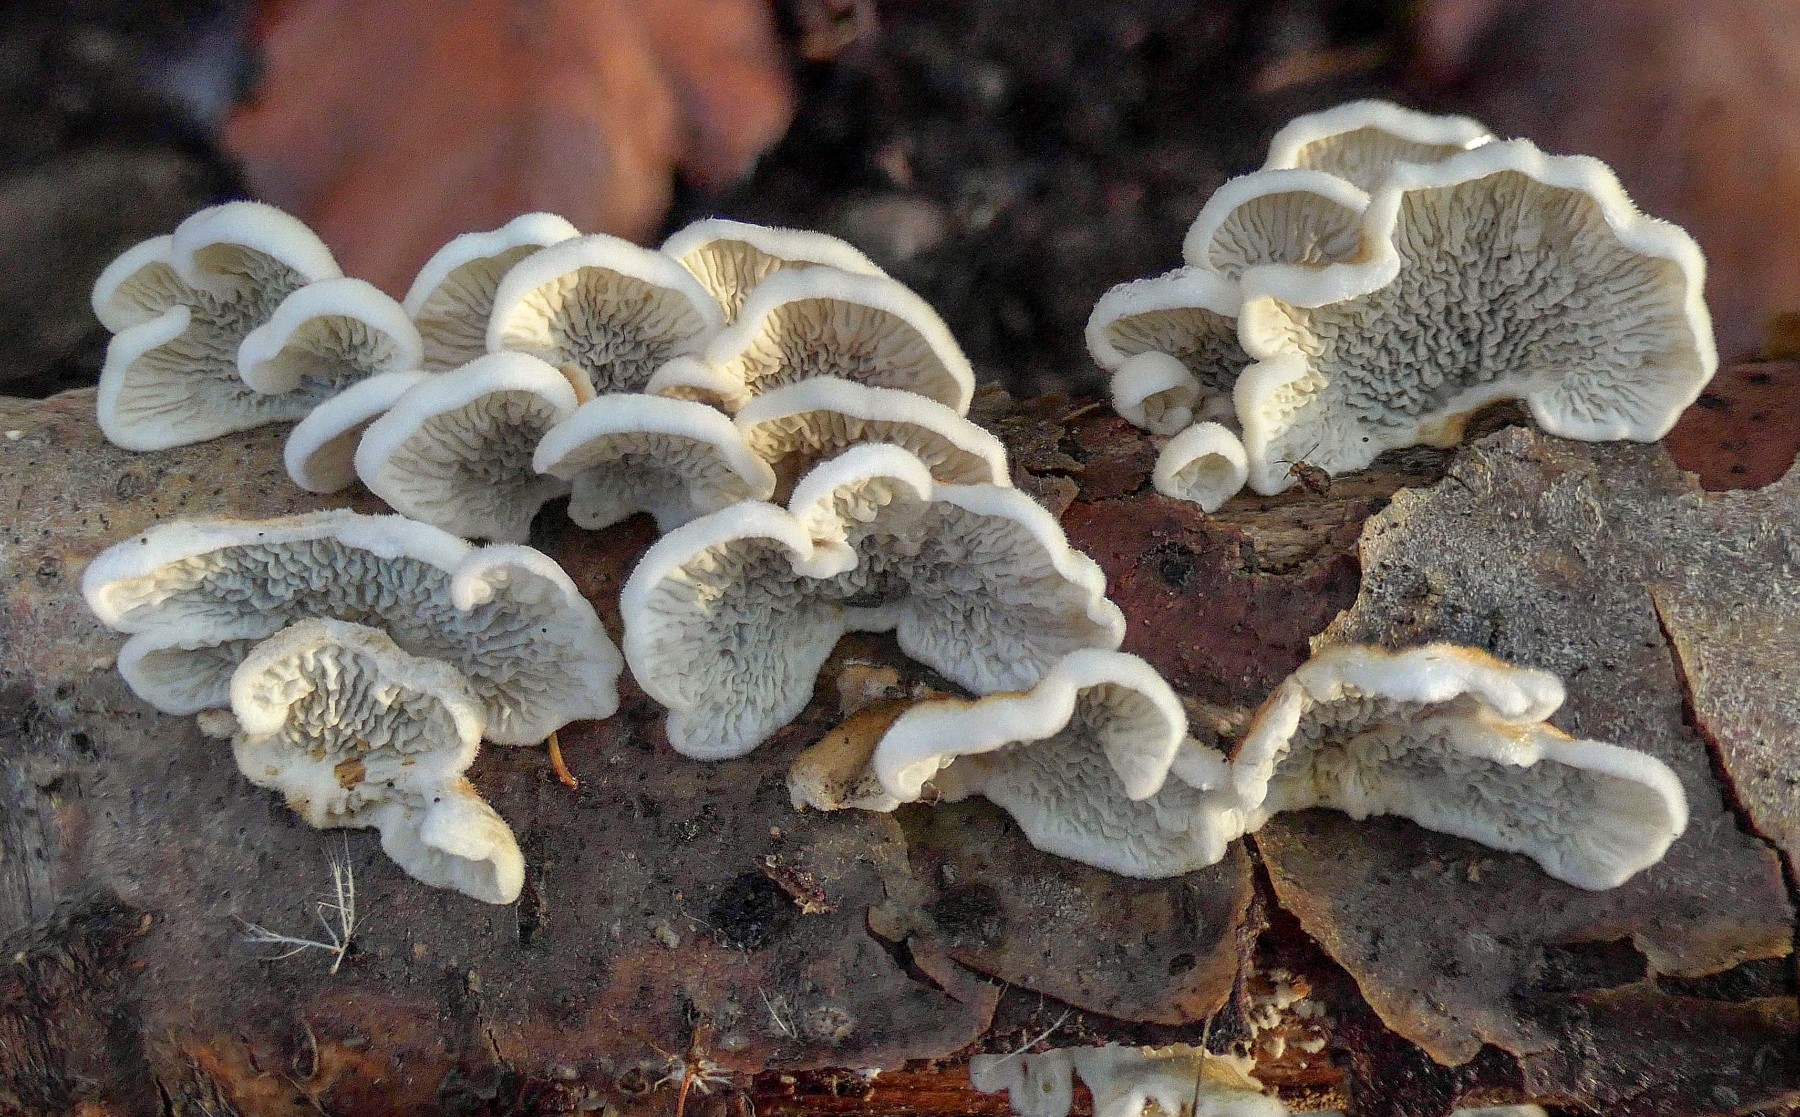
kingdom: Fungi
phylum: Basidiomycota
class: Agaricomycetes
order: Amylocorticiales
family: Amylocorticiaceae
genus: Plicaturopsis
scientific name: Plicaturopsis crispa
